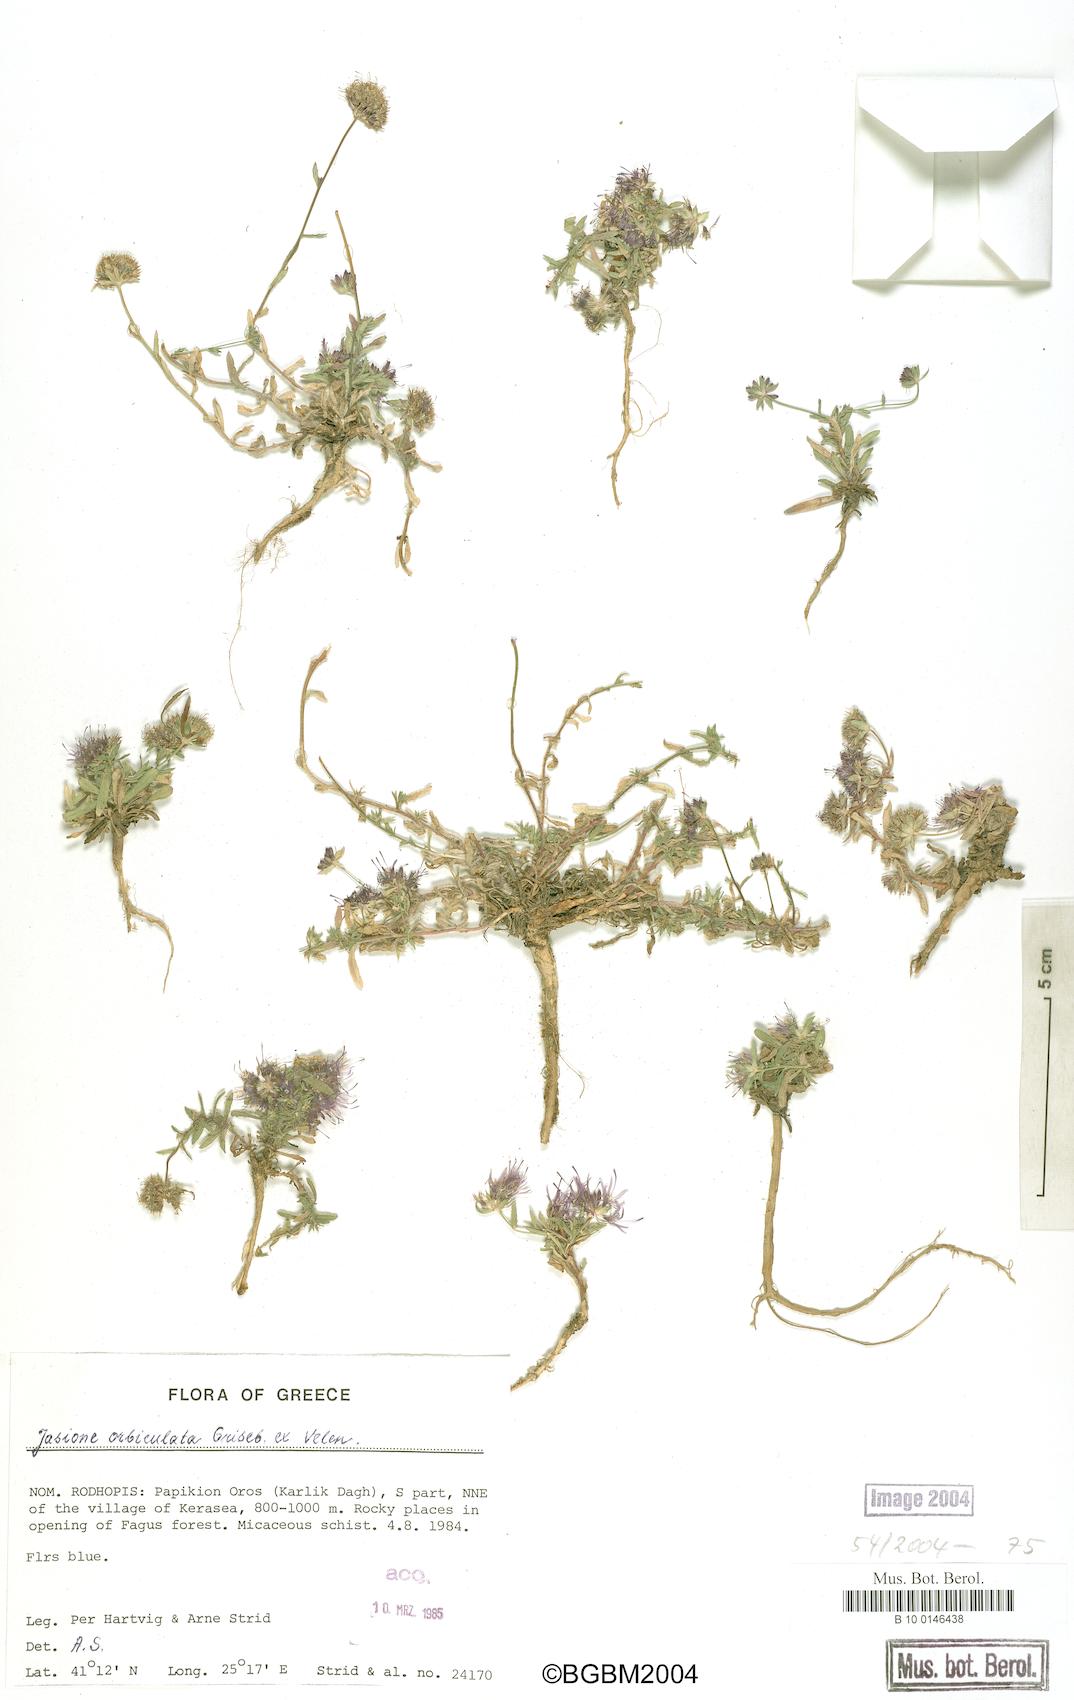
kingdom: Plantae
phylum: Tracheophyta
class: Magnoliopsida
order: Asterales
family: Campanulaceae
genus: Jasione
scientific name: Jasione orbiculata
